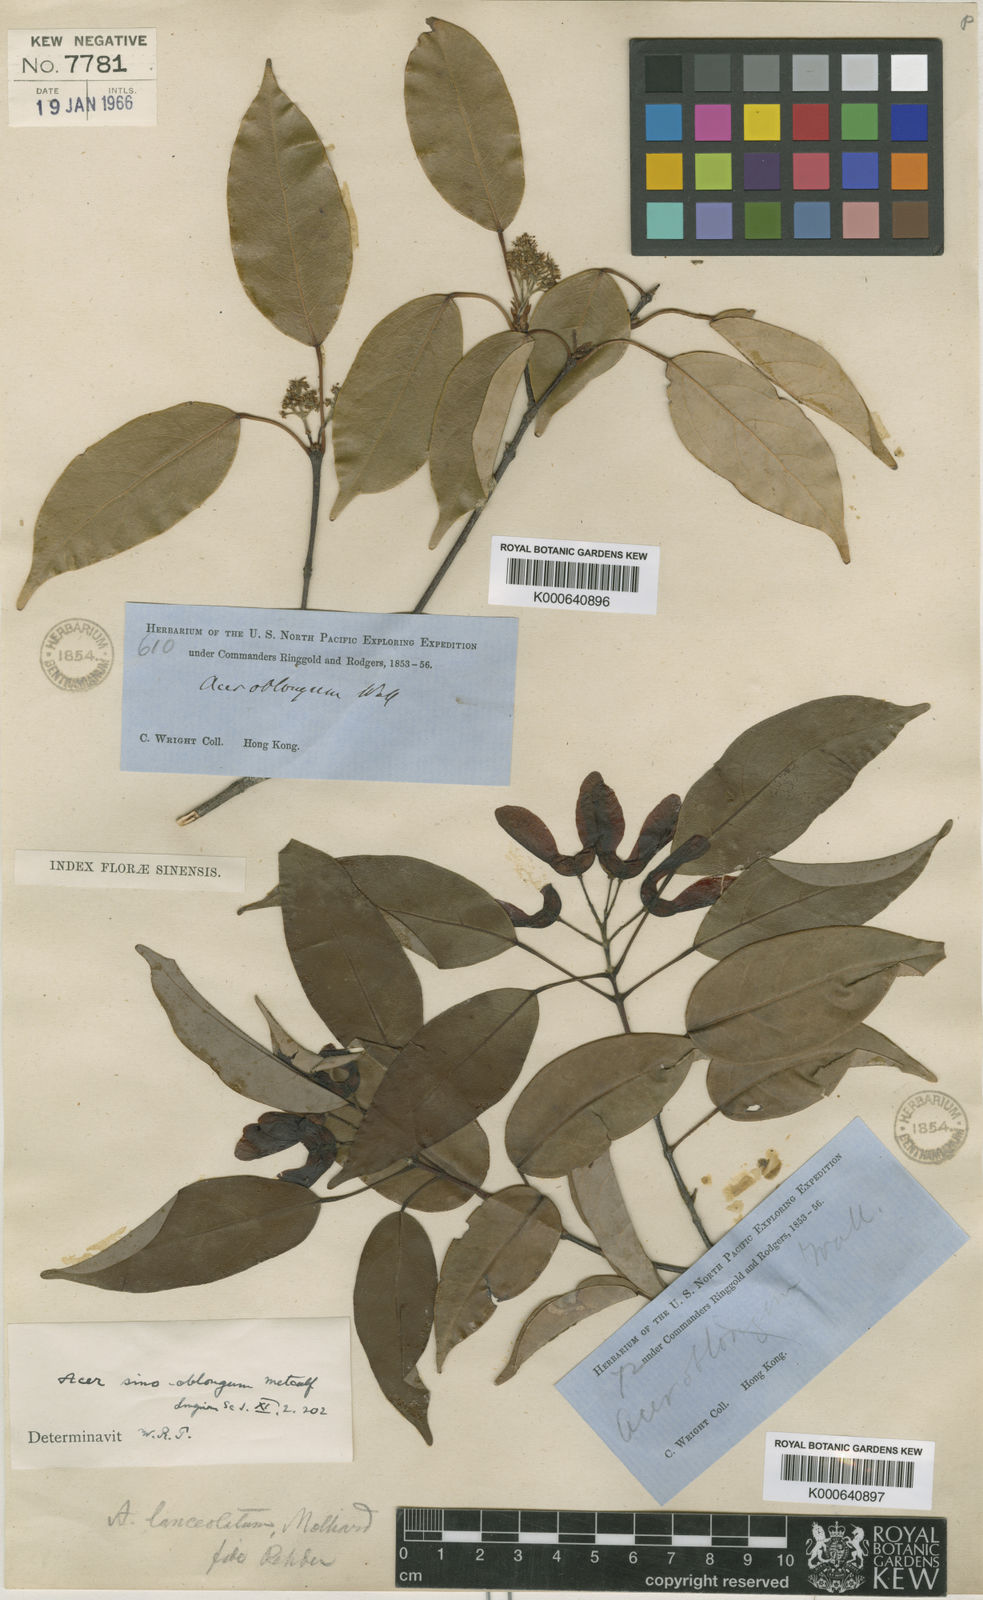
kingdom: Plantae
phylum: Tracheophyta
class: Magnoliopsida
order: Sapindales
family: Sapindaceae
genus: Acer
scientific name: Acer sino-oblongum
